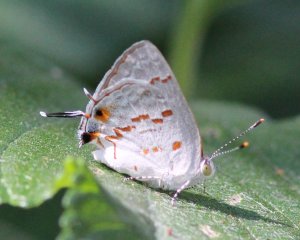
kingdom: Animalia
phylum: Arthropoda
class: Insecta
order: Lepidoptera
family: Lycaenidae
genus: Ministrymon
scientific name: Ministrymon clytie
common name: Clytie Ministreak
